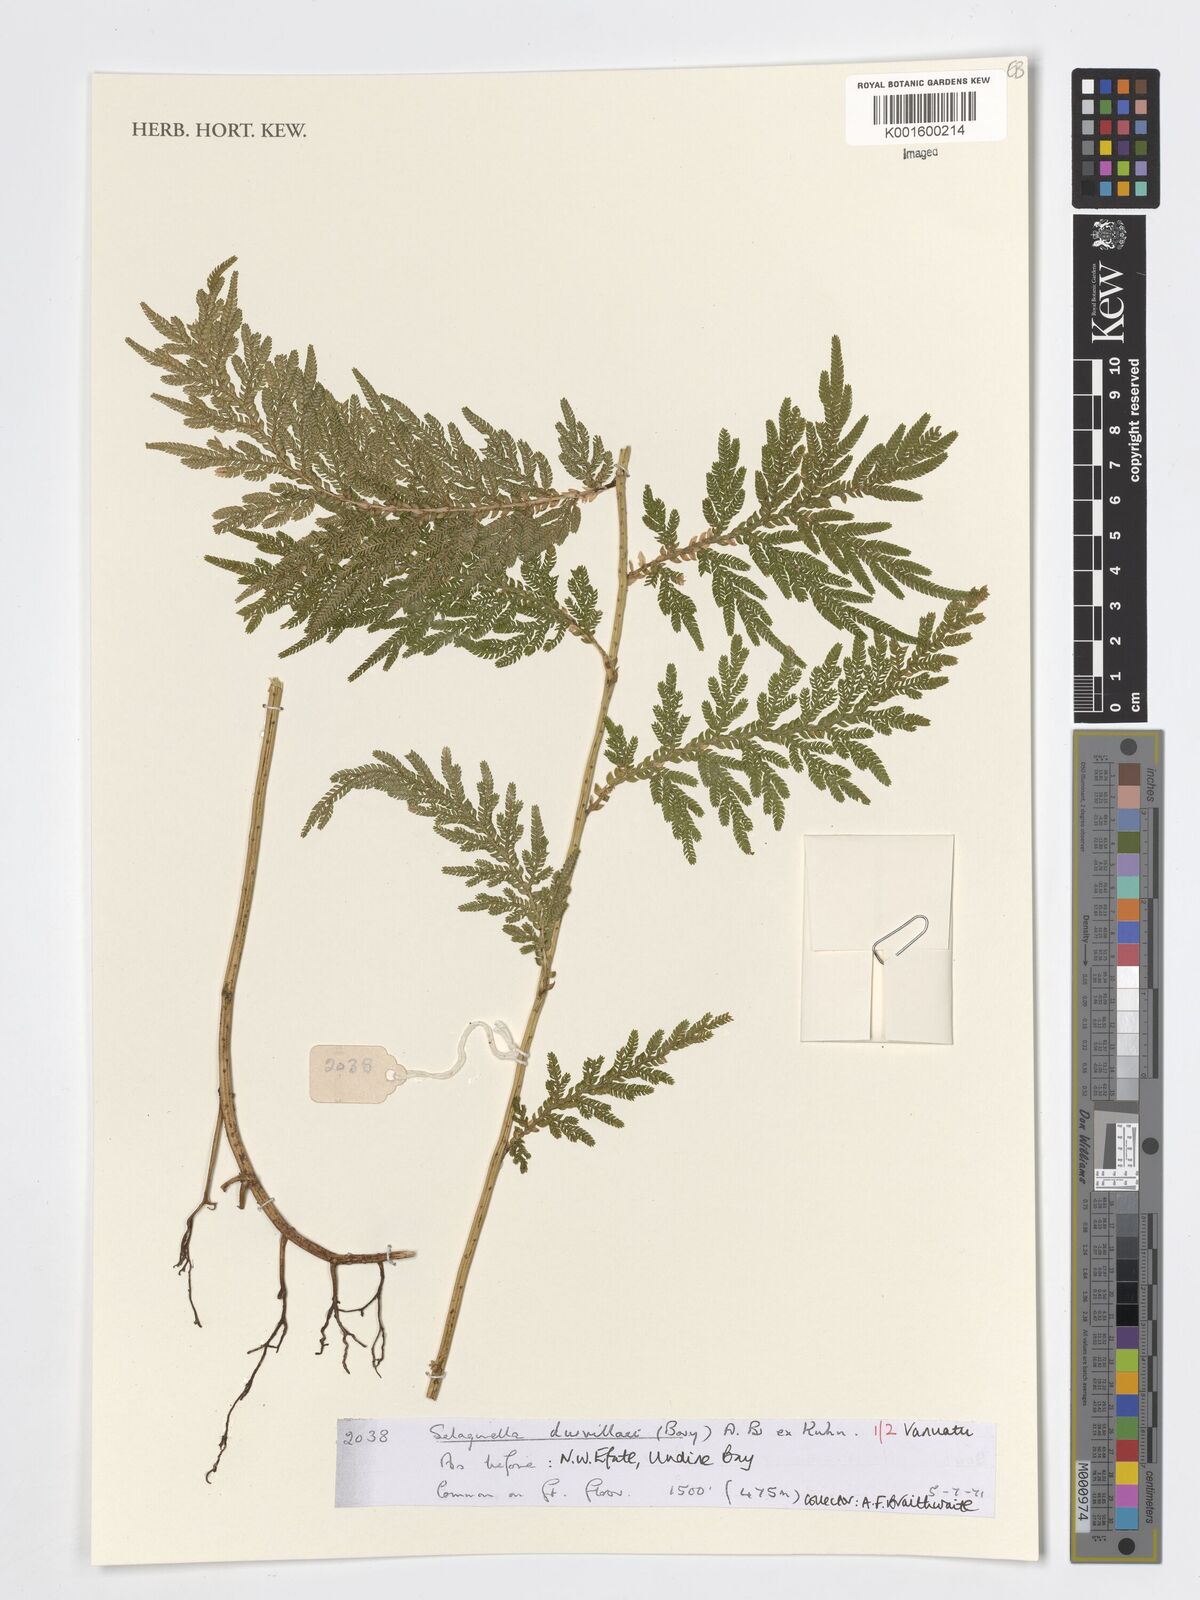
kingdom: Plantae
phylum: Tracheophyta
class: Lycopodiopsida
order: Selaginellales
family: Selaginellaceae
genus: Selaginella
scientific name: Selaginella plana
